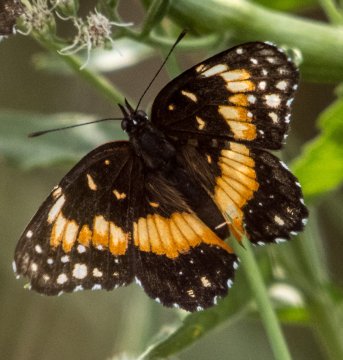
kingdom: Animalia
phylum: Arthropoda
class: Insecta
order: Lepidoptera
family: Nymphalidae
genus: Chlosyne
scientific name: Chlosyne lacinia
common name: Bordered Patch
